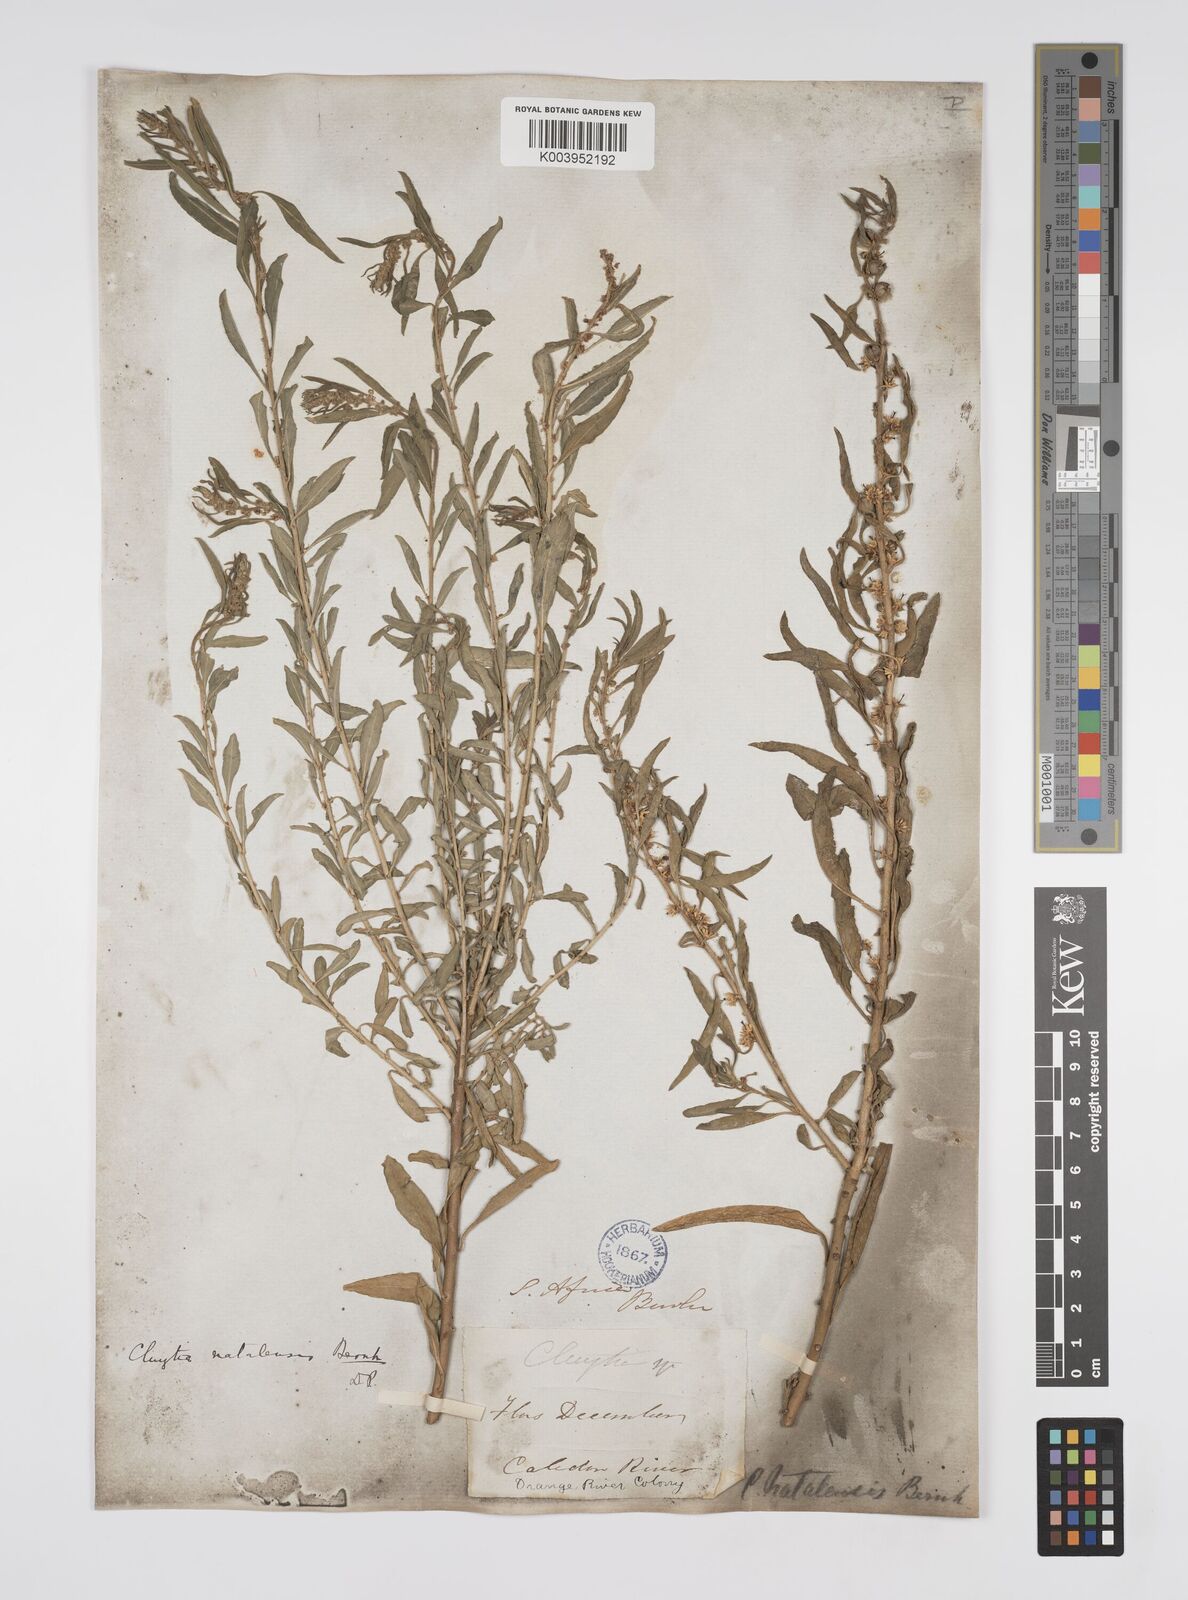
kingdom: Plantae
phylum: Tracheophyta
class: Magnoliopsida
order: Malpighiales
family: Peraceae
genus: Clutia
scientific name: Clutia natalensis
